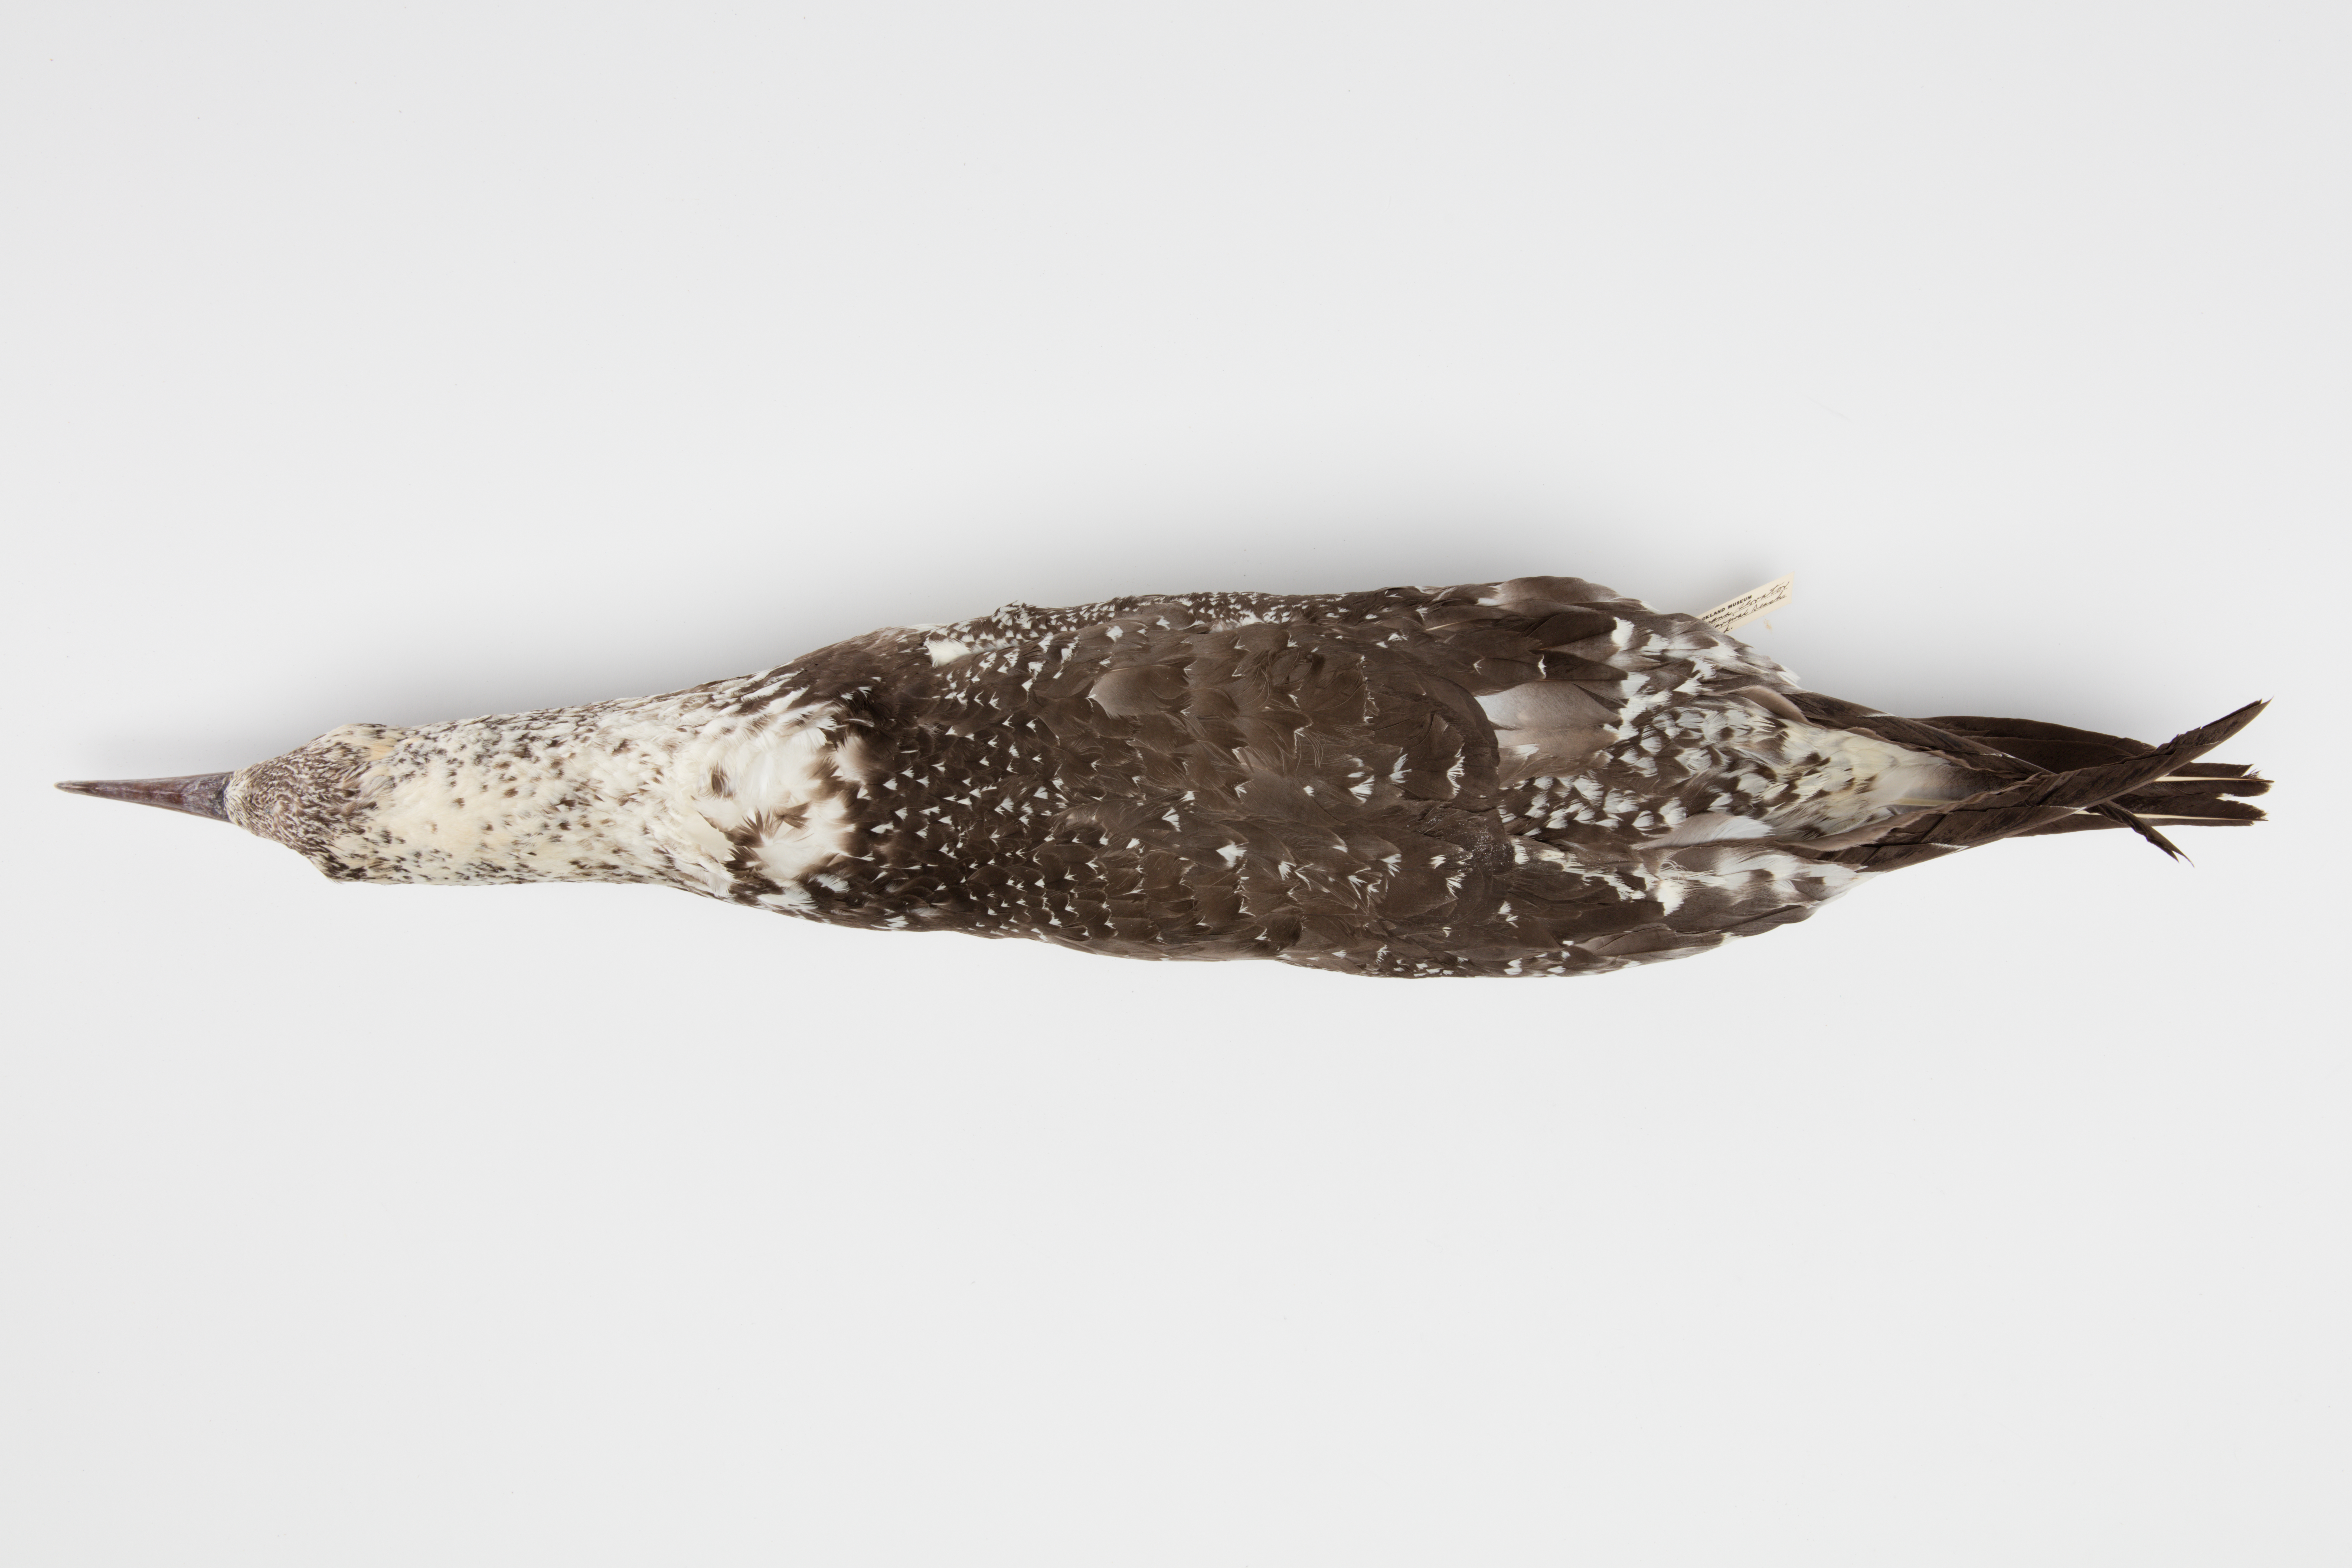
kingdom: Animalia
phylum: Chordata
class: Aves
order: Suliformes
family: Sulidae
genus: Morus
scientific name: Morus serrator
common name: Australasian gannet
